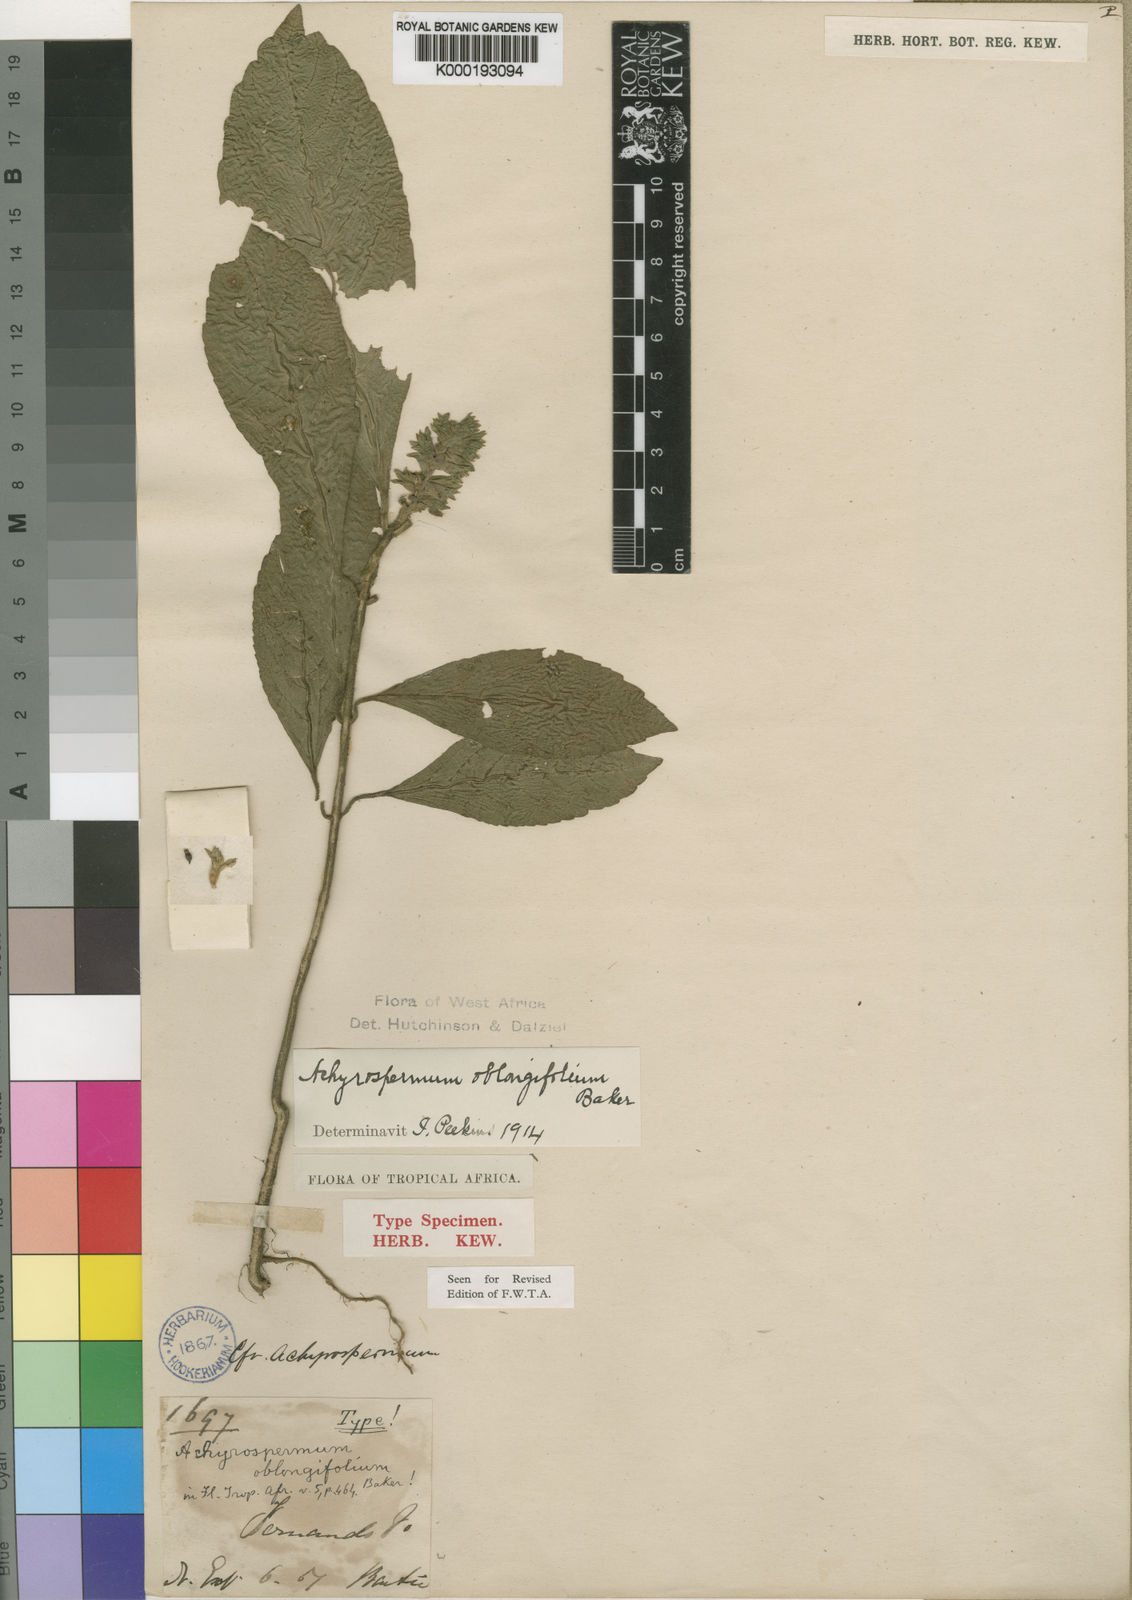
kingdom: Plantae
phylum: Tracheophyta
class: Magnoliopsida
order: Lamiales
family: Lamiaceae
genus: Achyrospermum
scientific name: Achyrospermum oblongifolium
